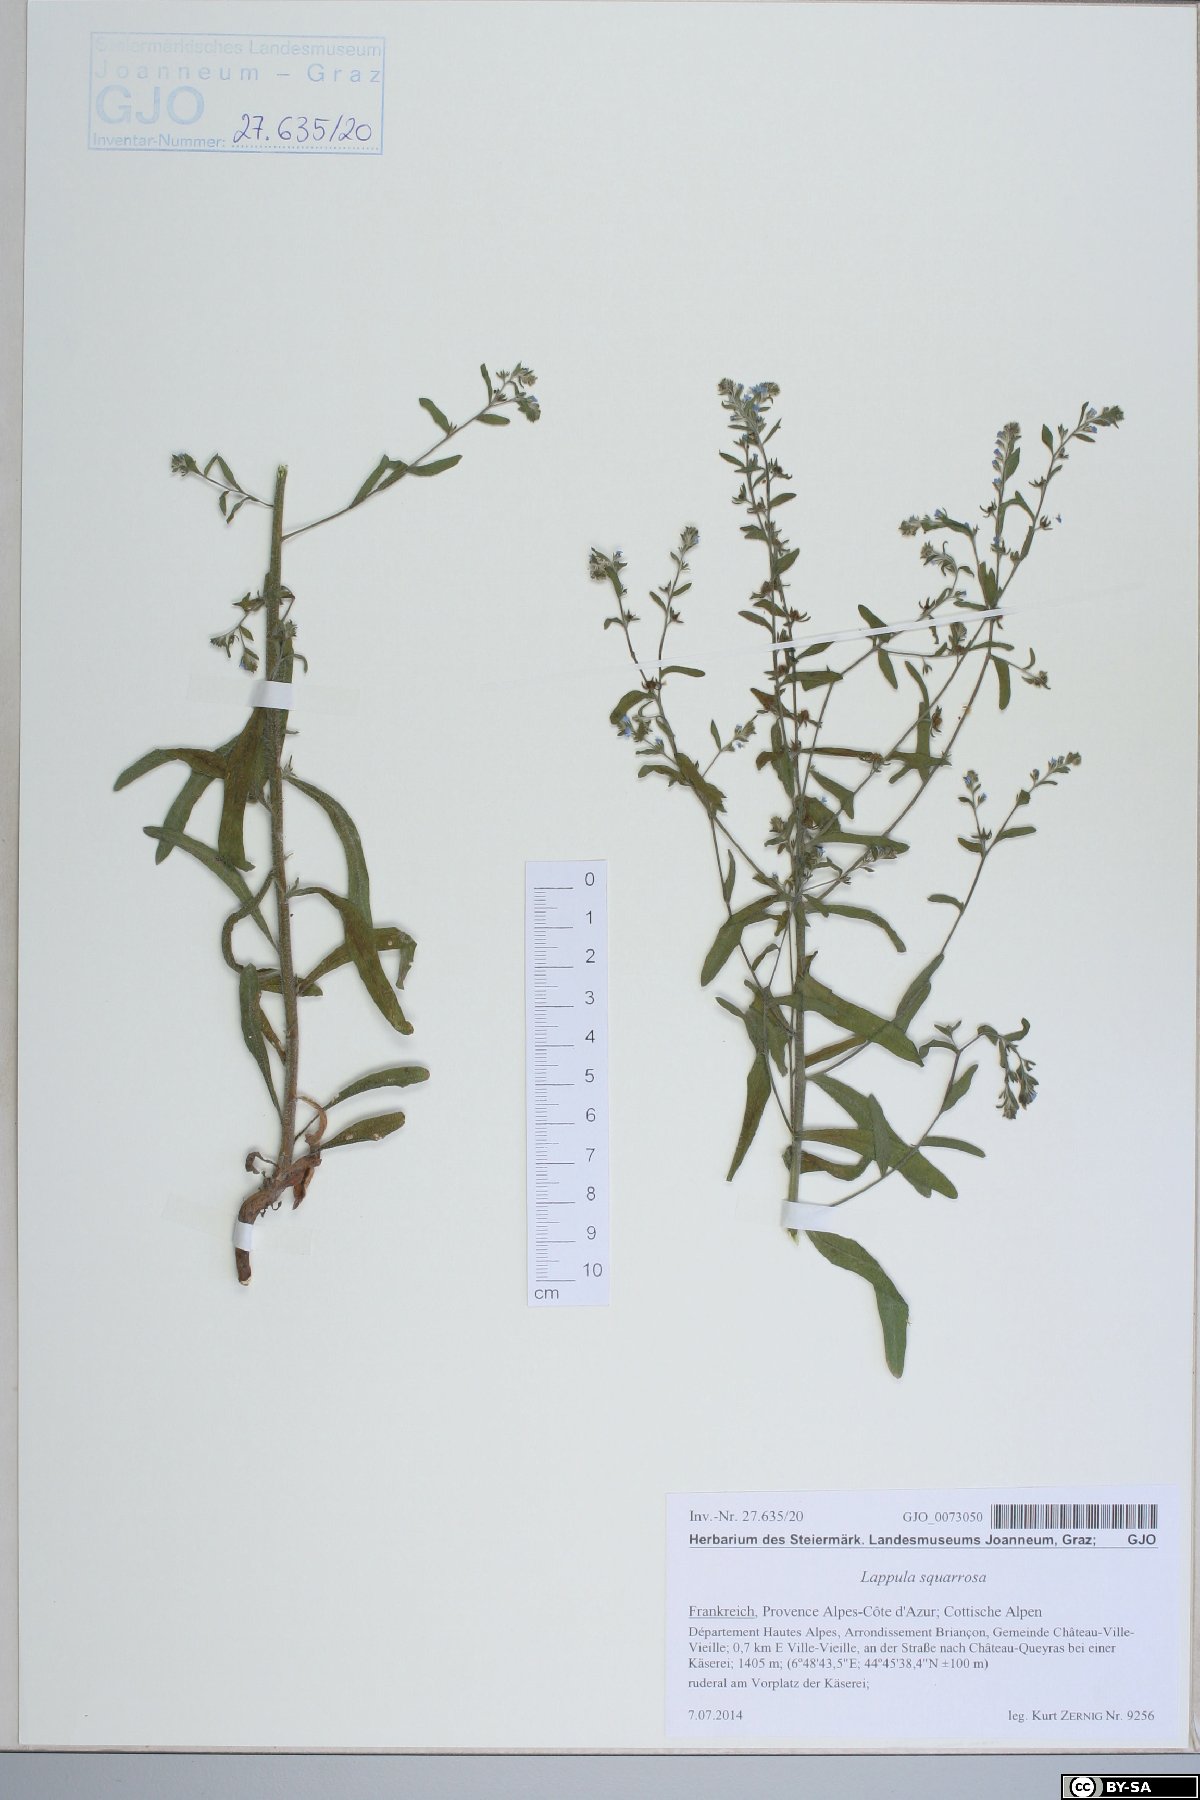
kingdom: Plantae
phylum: Tracheophyta
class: Magnoliopsida
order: Boraginales
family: Boraginaceae
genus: Lappula
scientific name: Lappula squarrosa
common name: European stickseed
